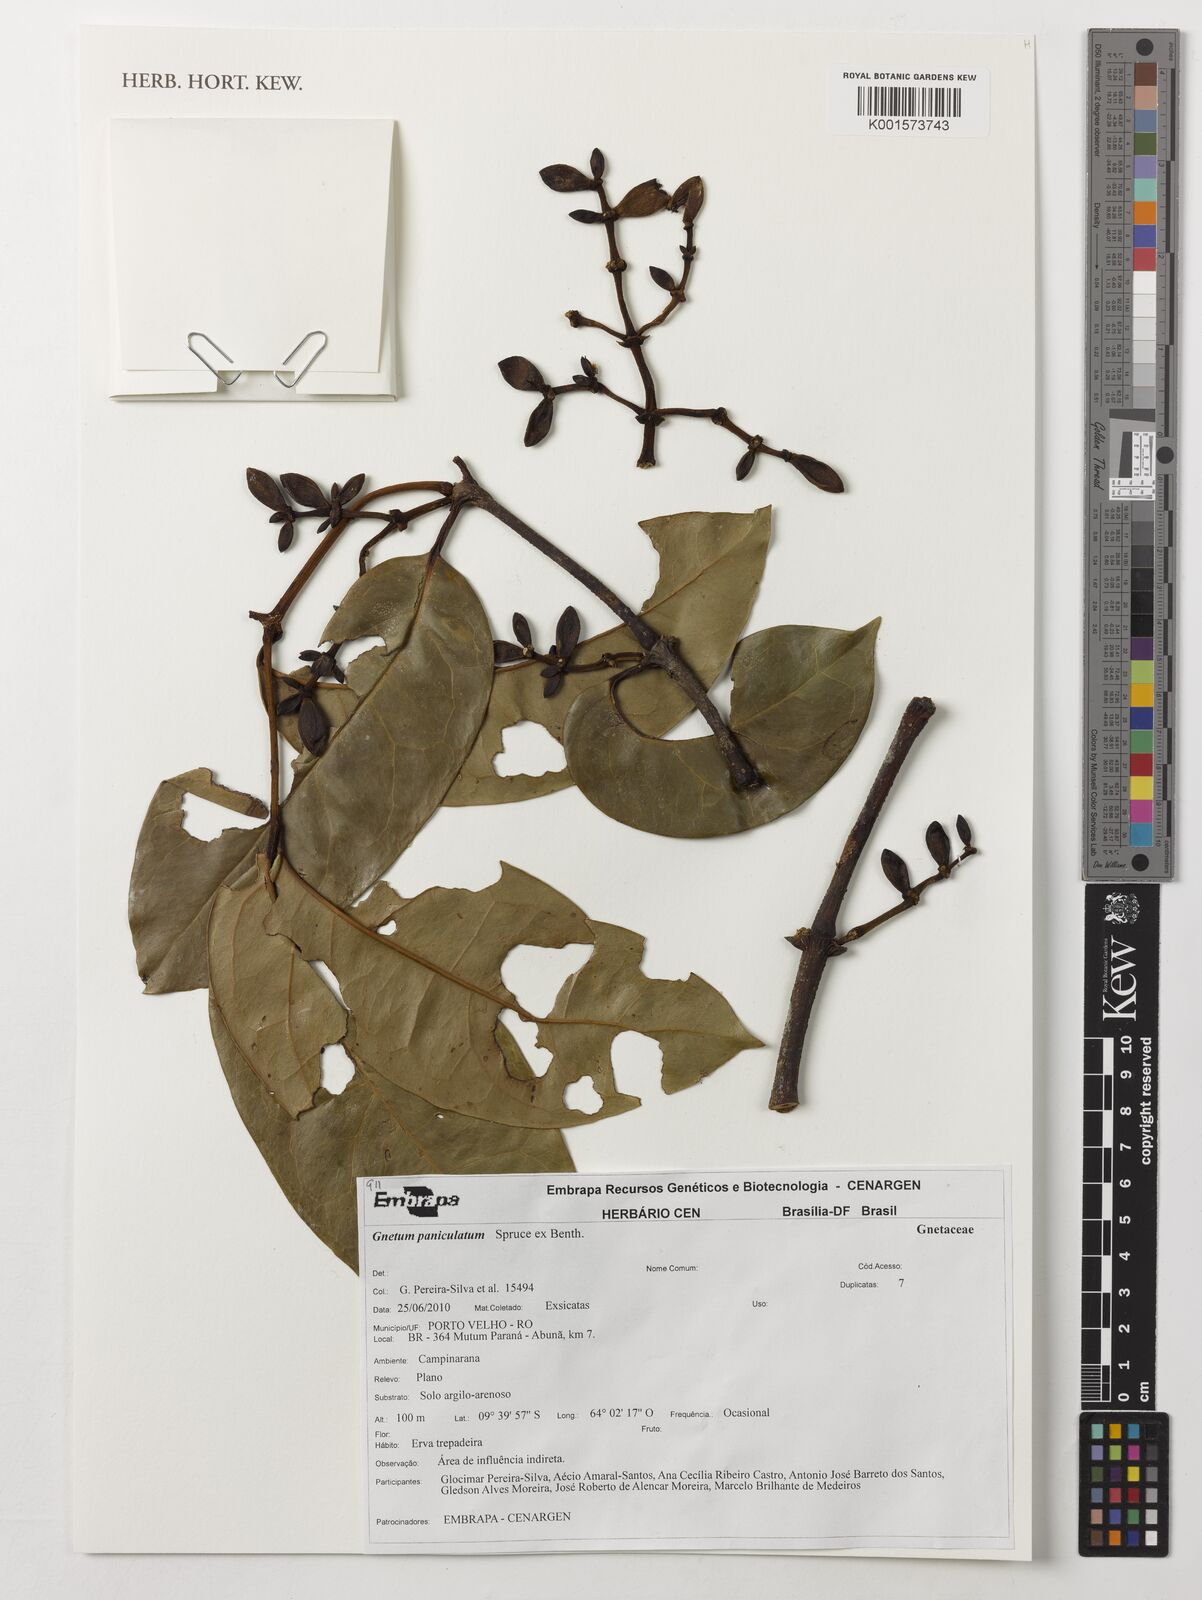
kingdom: Plantae
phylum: Tracheophyta
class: Gnetopsida
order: Gnetales
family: Gnetaceae
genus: Gnetum
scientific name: Gnetum paniculatum
